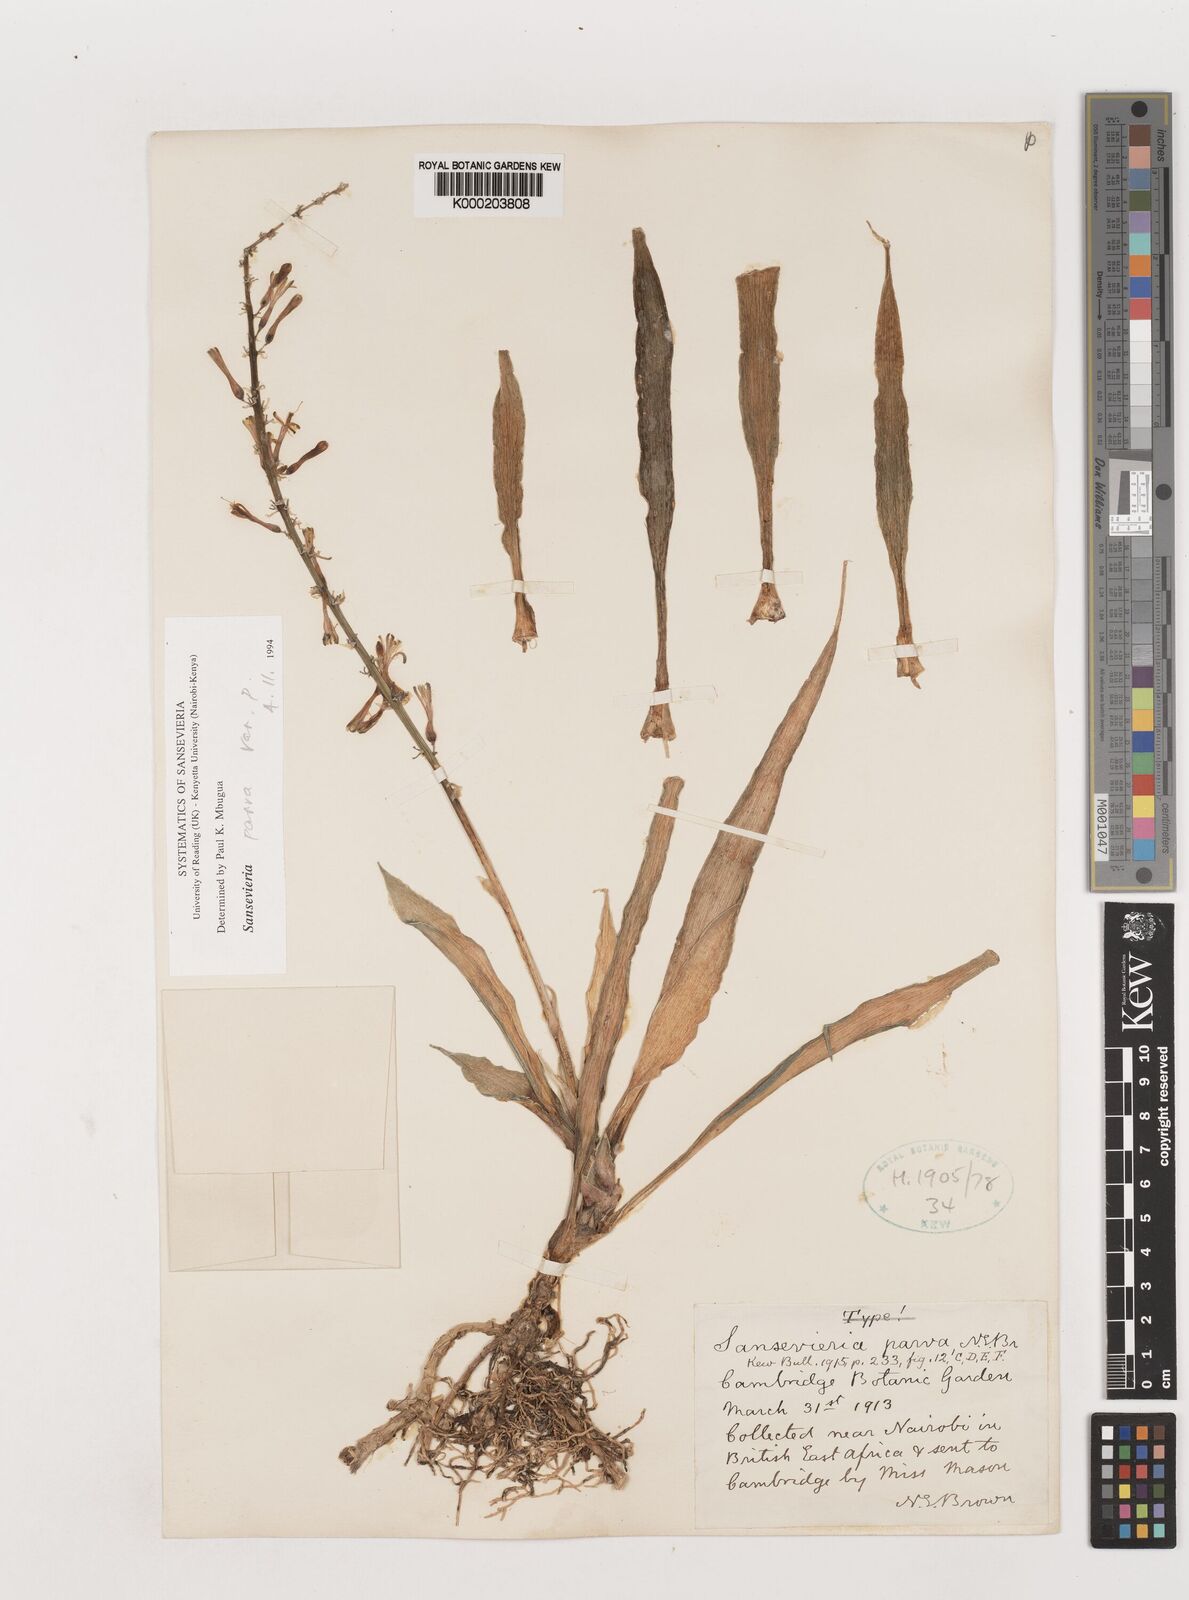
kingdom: Plantae
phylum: Tracheophyta
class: Liliopsida
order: Asparagales
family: Asparagaceae
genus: Dracaena
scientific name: Dracaena parva
